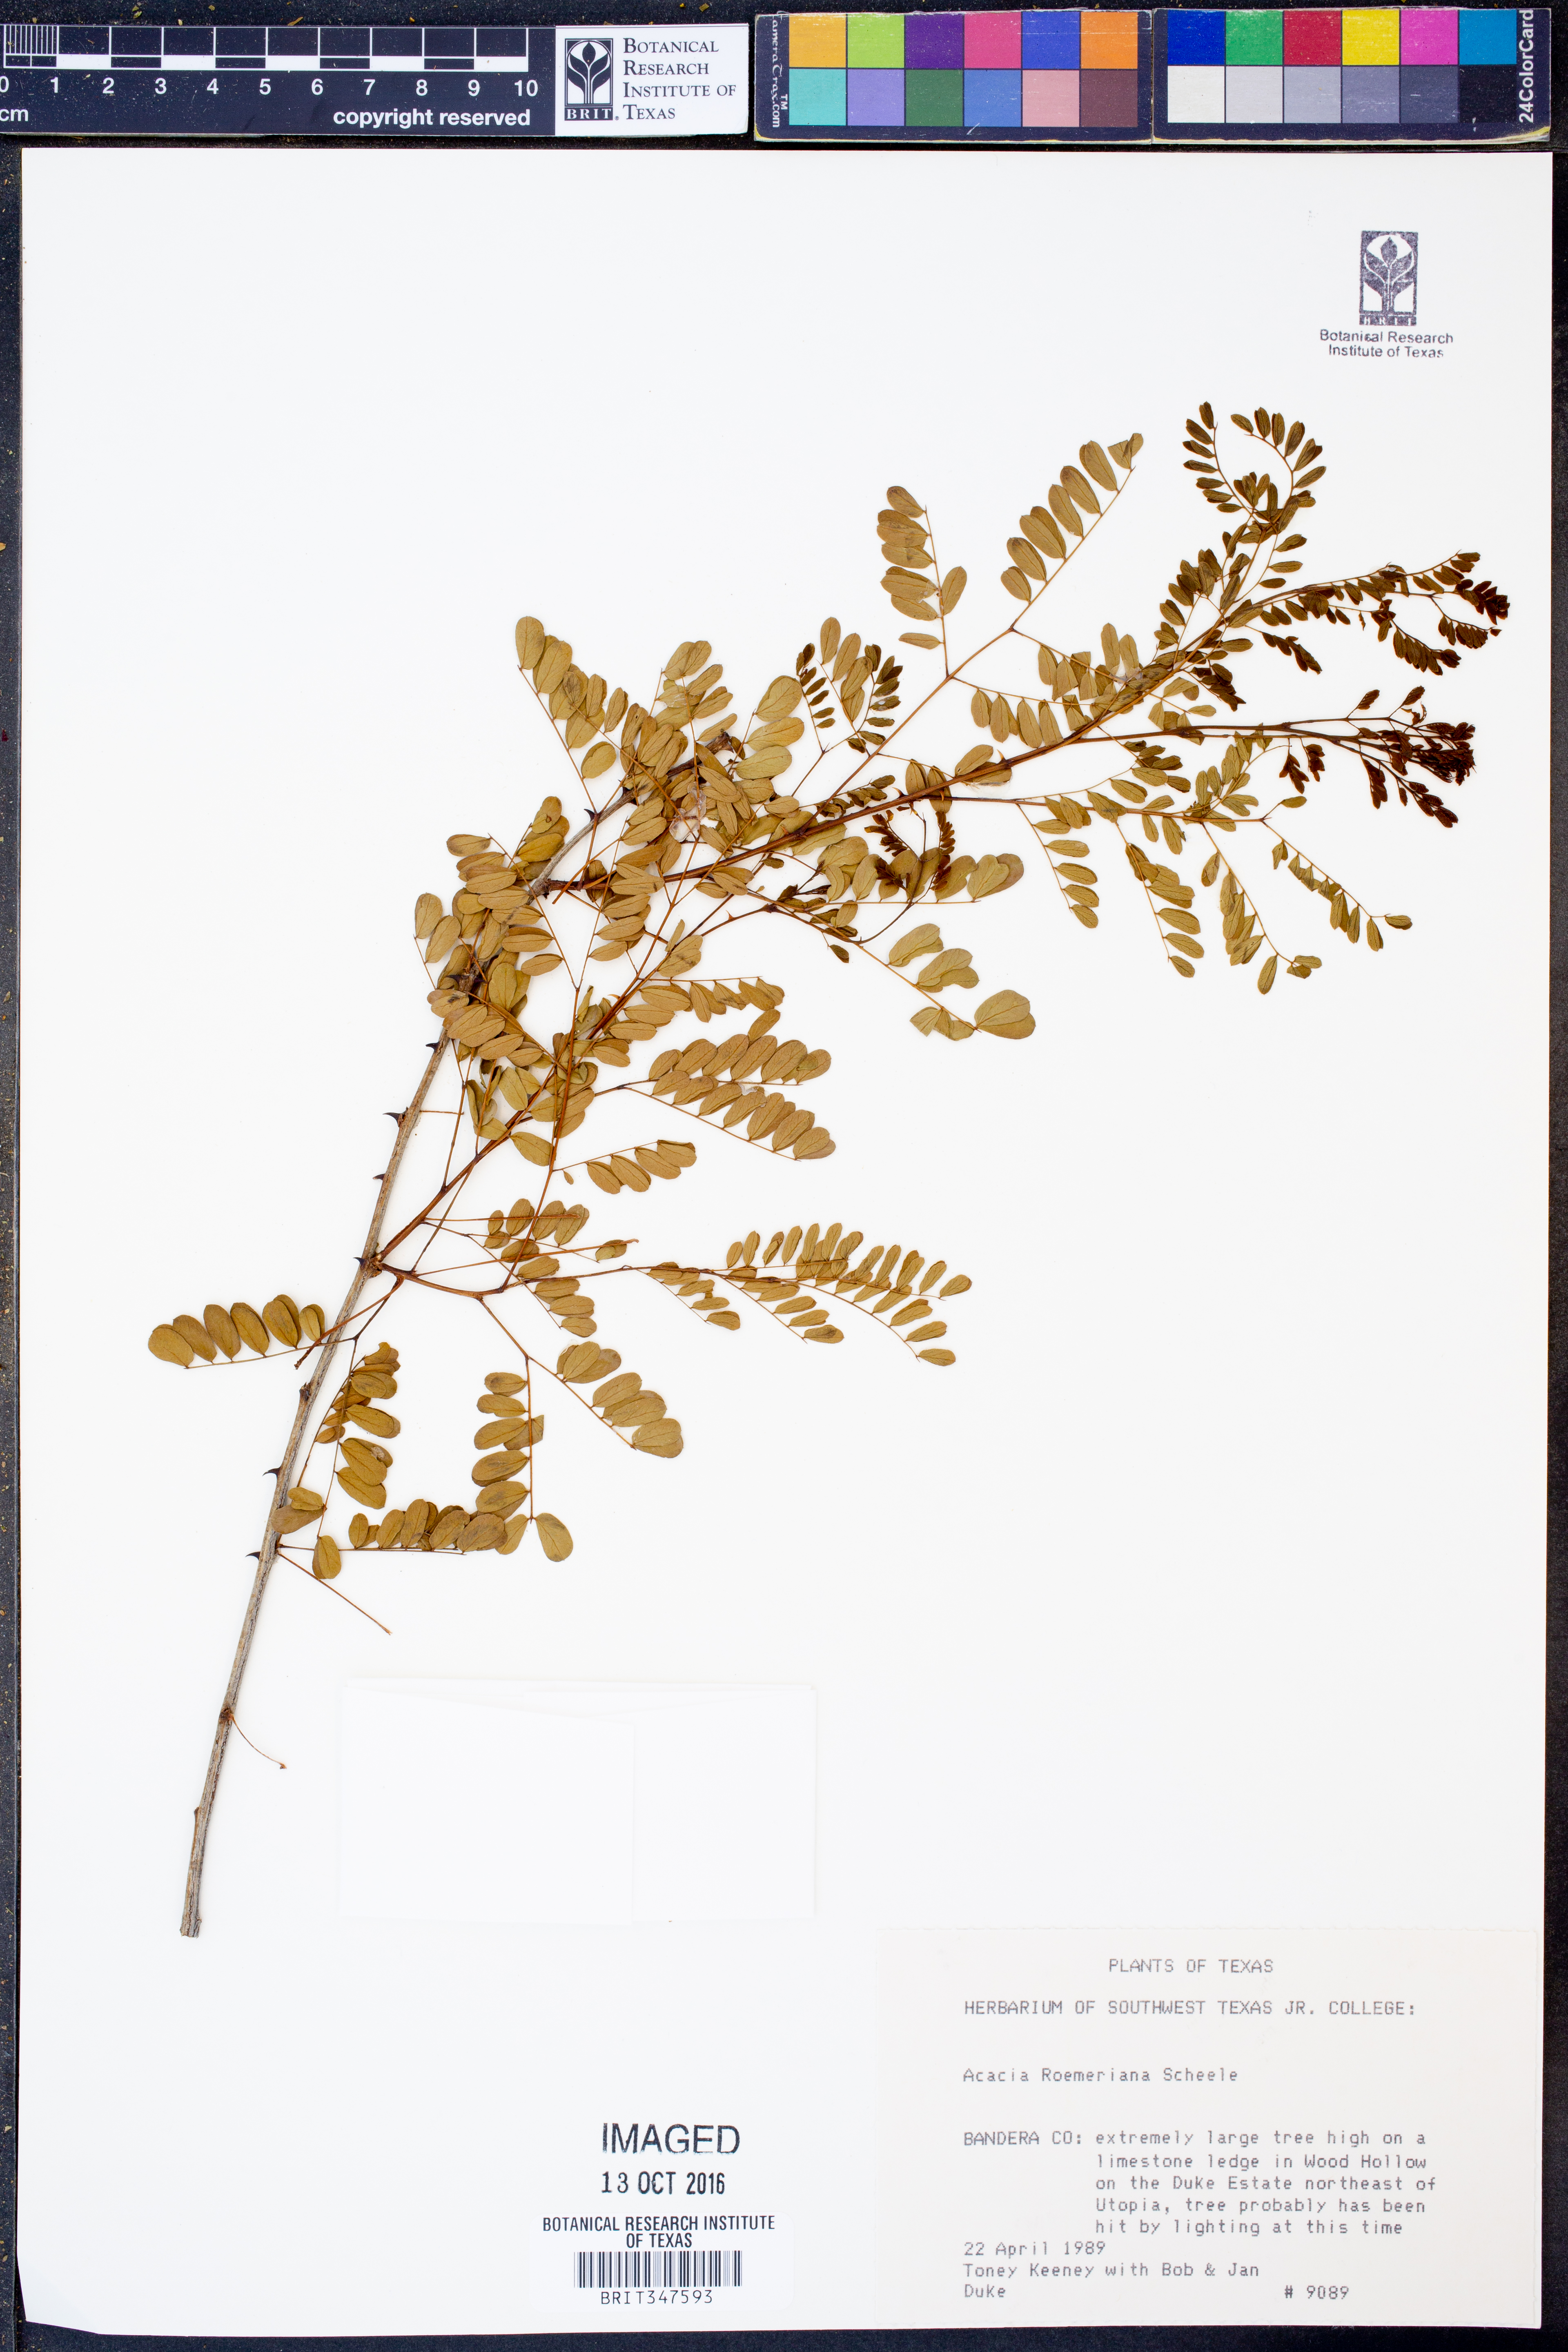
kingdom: Plantae
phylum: Tracheophyta
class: Magnoliopsida
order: Fabales
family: Fabaceae
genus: Senegalia
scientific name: Senegalia roemeriana
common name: Roemer's acacia
